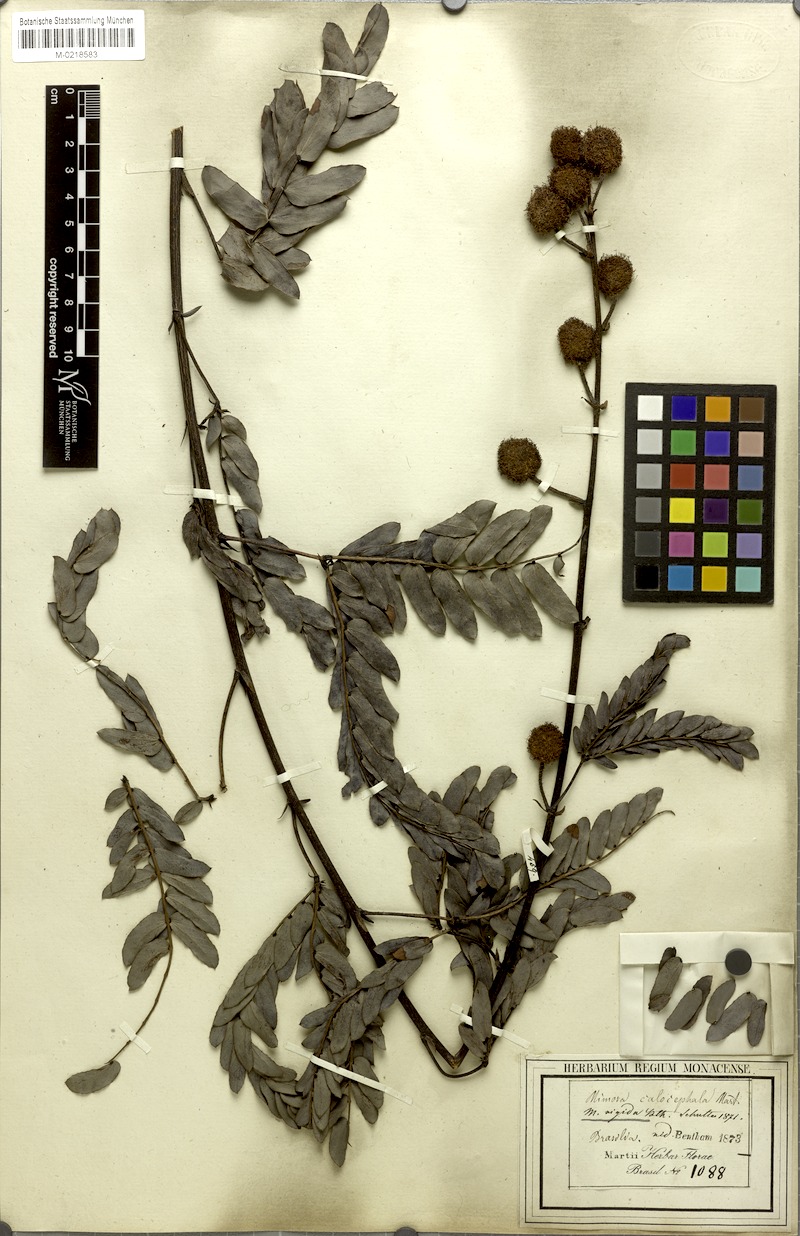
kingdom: Plantae
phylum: Tracheophyta
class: Magnoliopsida
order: Fabales
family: Fabaceae
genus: Mimosa
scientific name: Mimosa dolens
